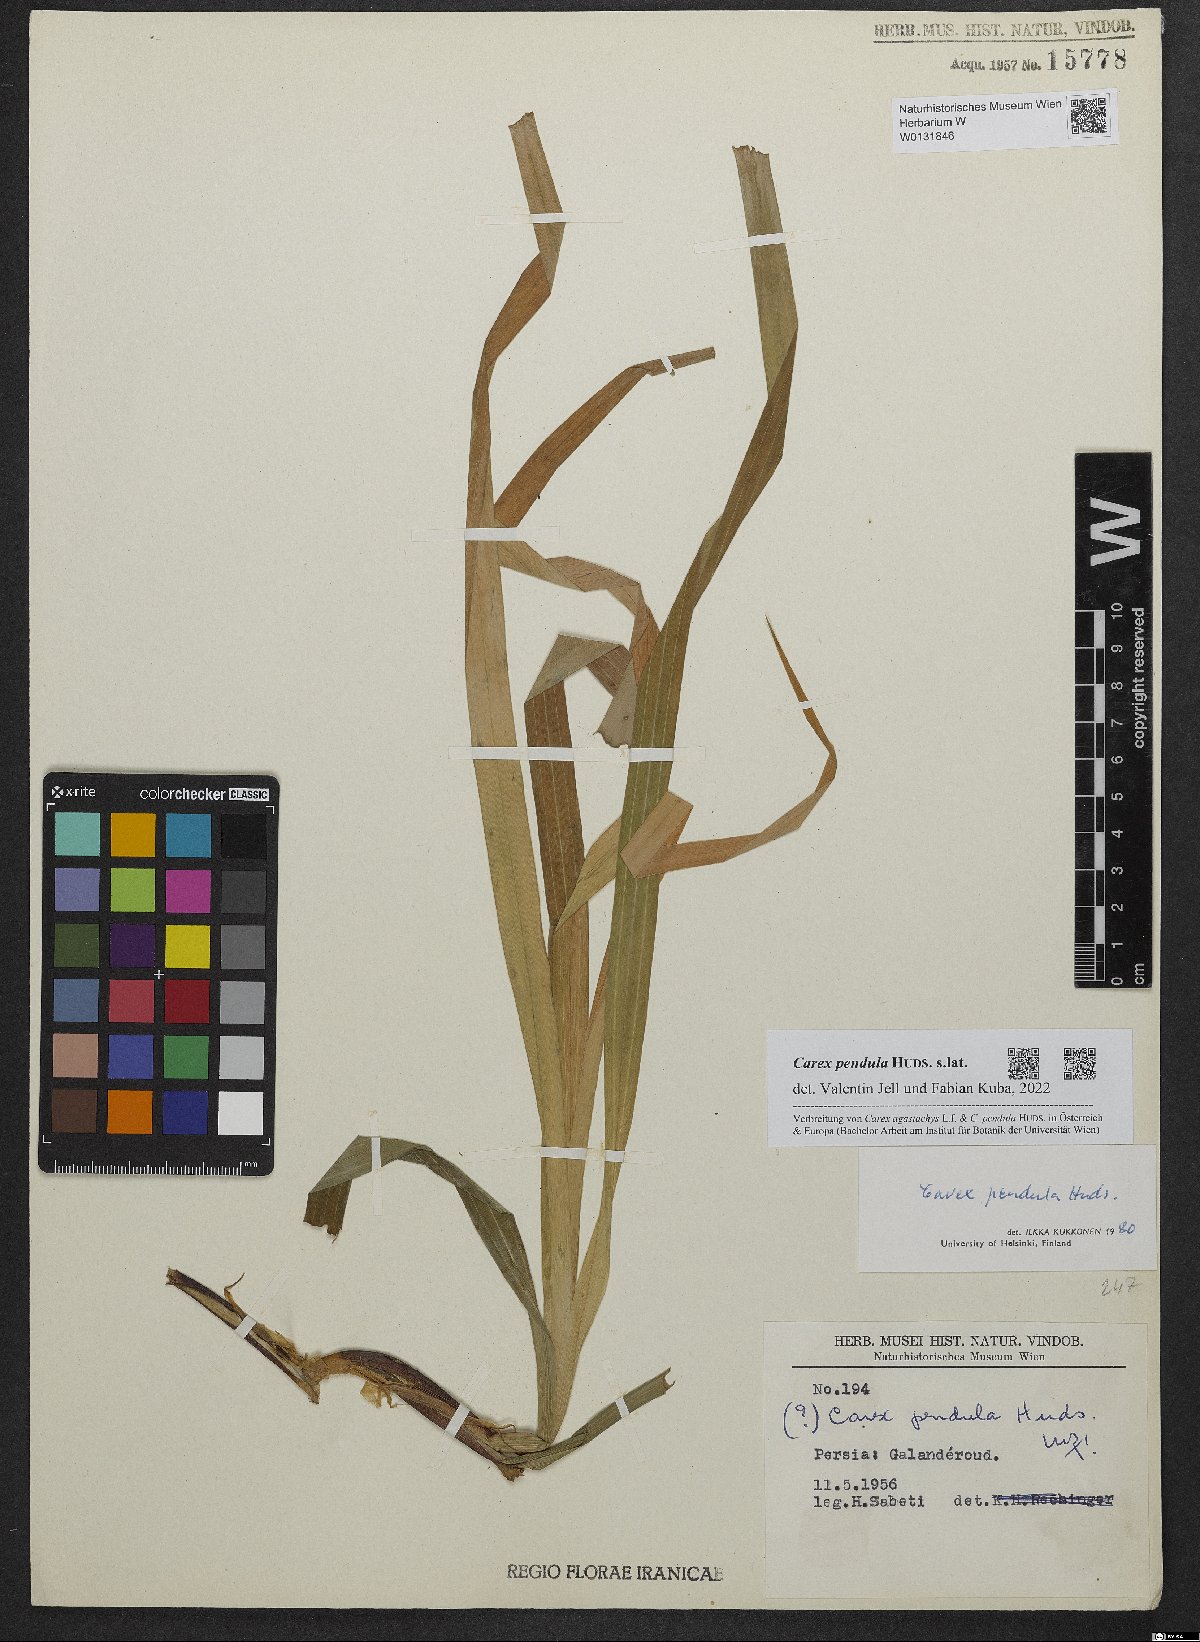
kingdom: Plantae
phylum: Tracheophyta
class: Liliopsida
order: Poales
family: Cyperaceae
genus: Carex
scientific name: Carex pendula
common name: Pendulous sedge
